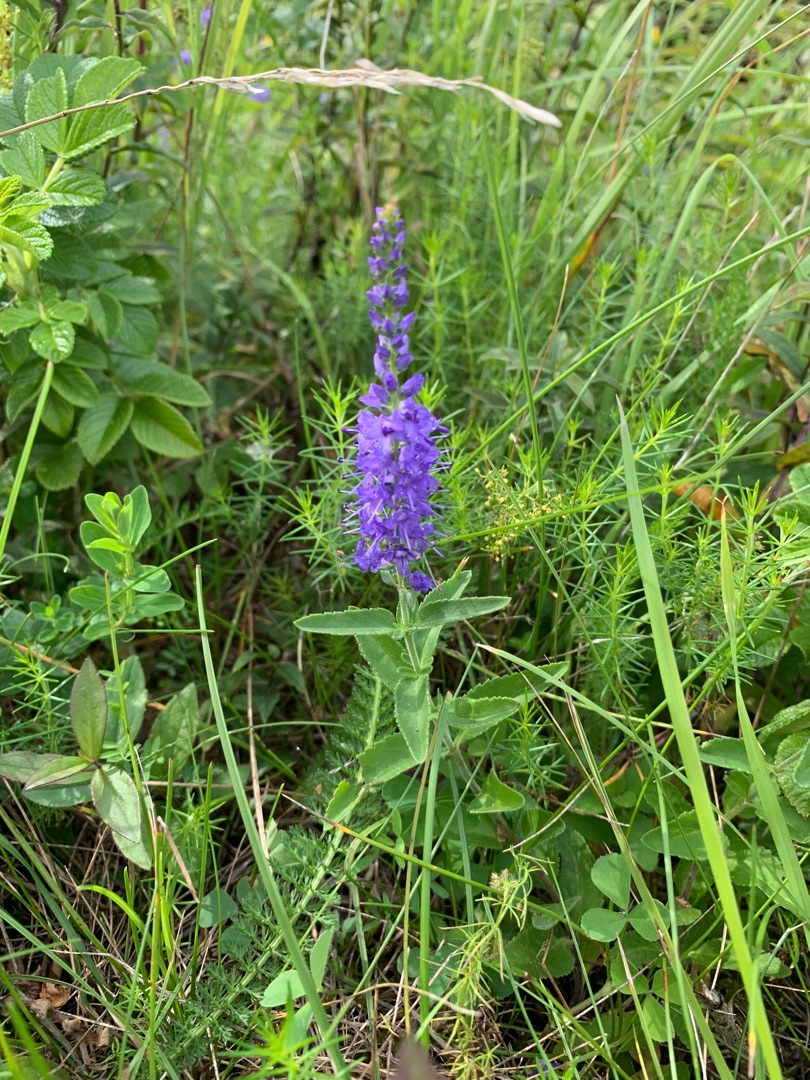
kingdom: Plantae
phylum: Tracheophyta
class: Magnoliopsida
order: Lamiales
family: Plantaginaceae
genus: Veronica
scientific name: Veronica spicata
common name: Aks-ærenpris
